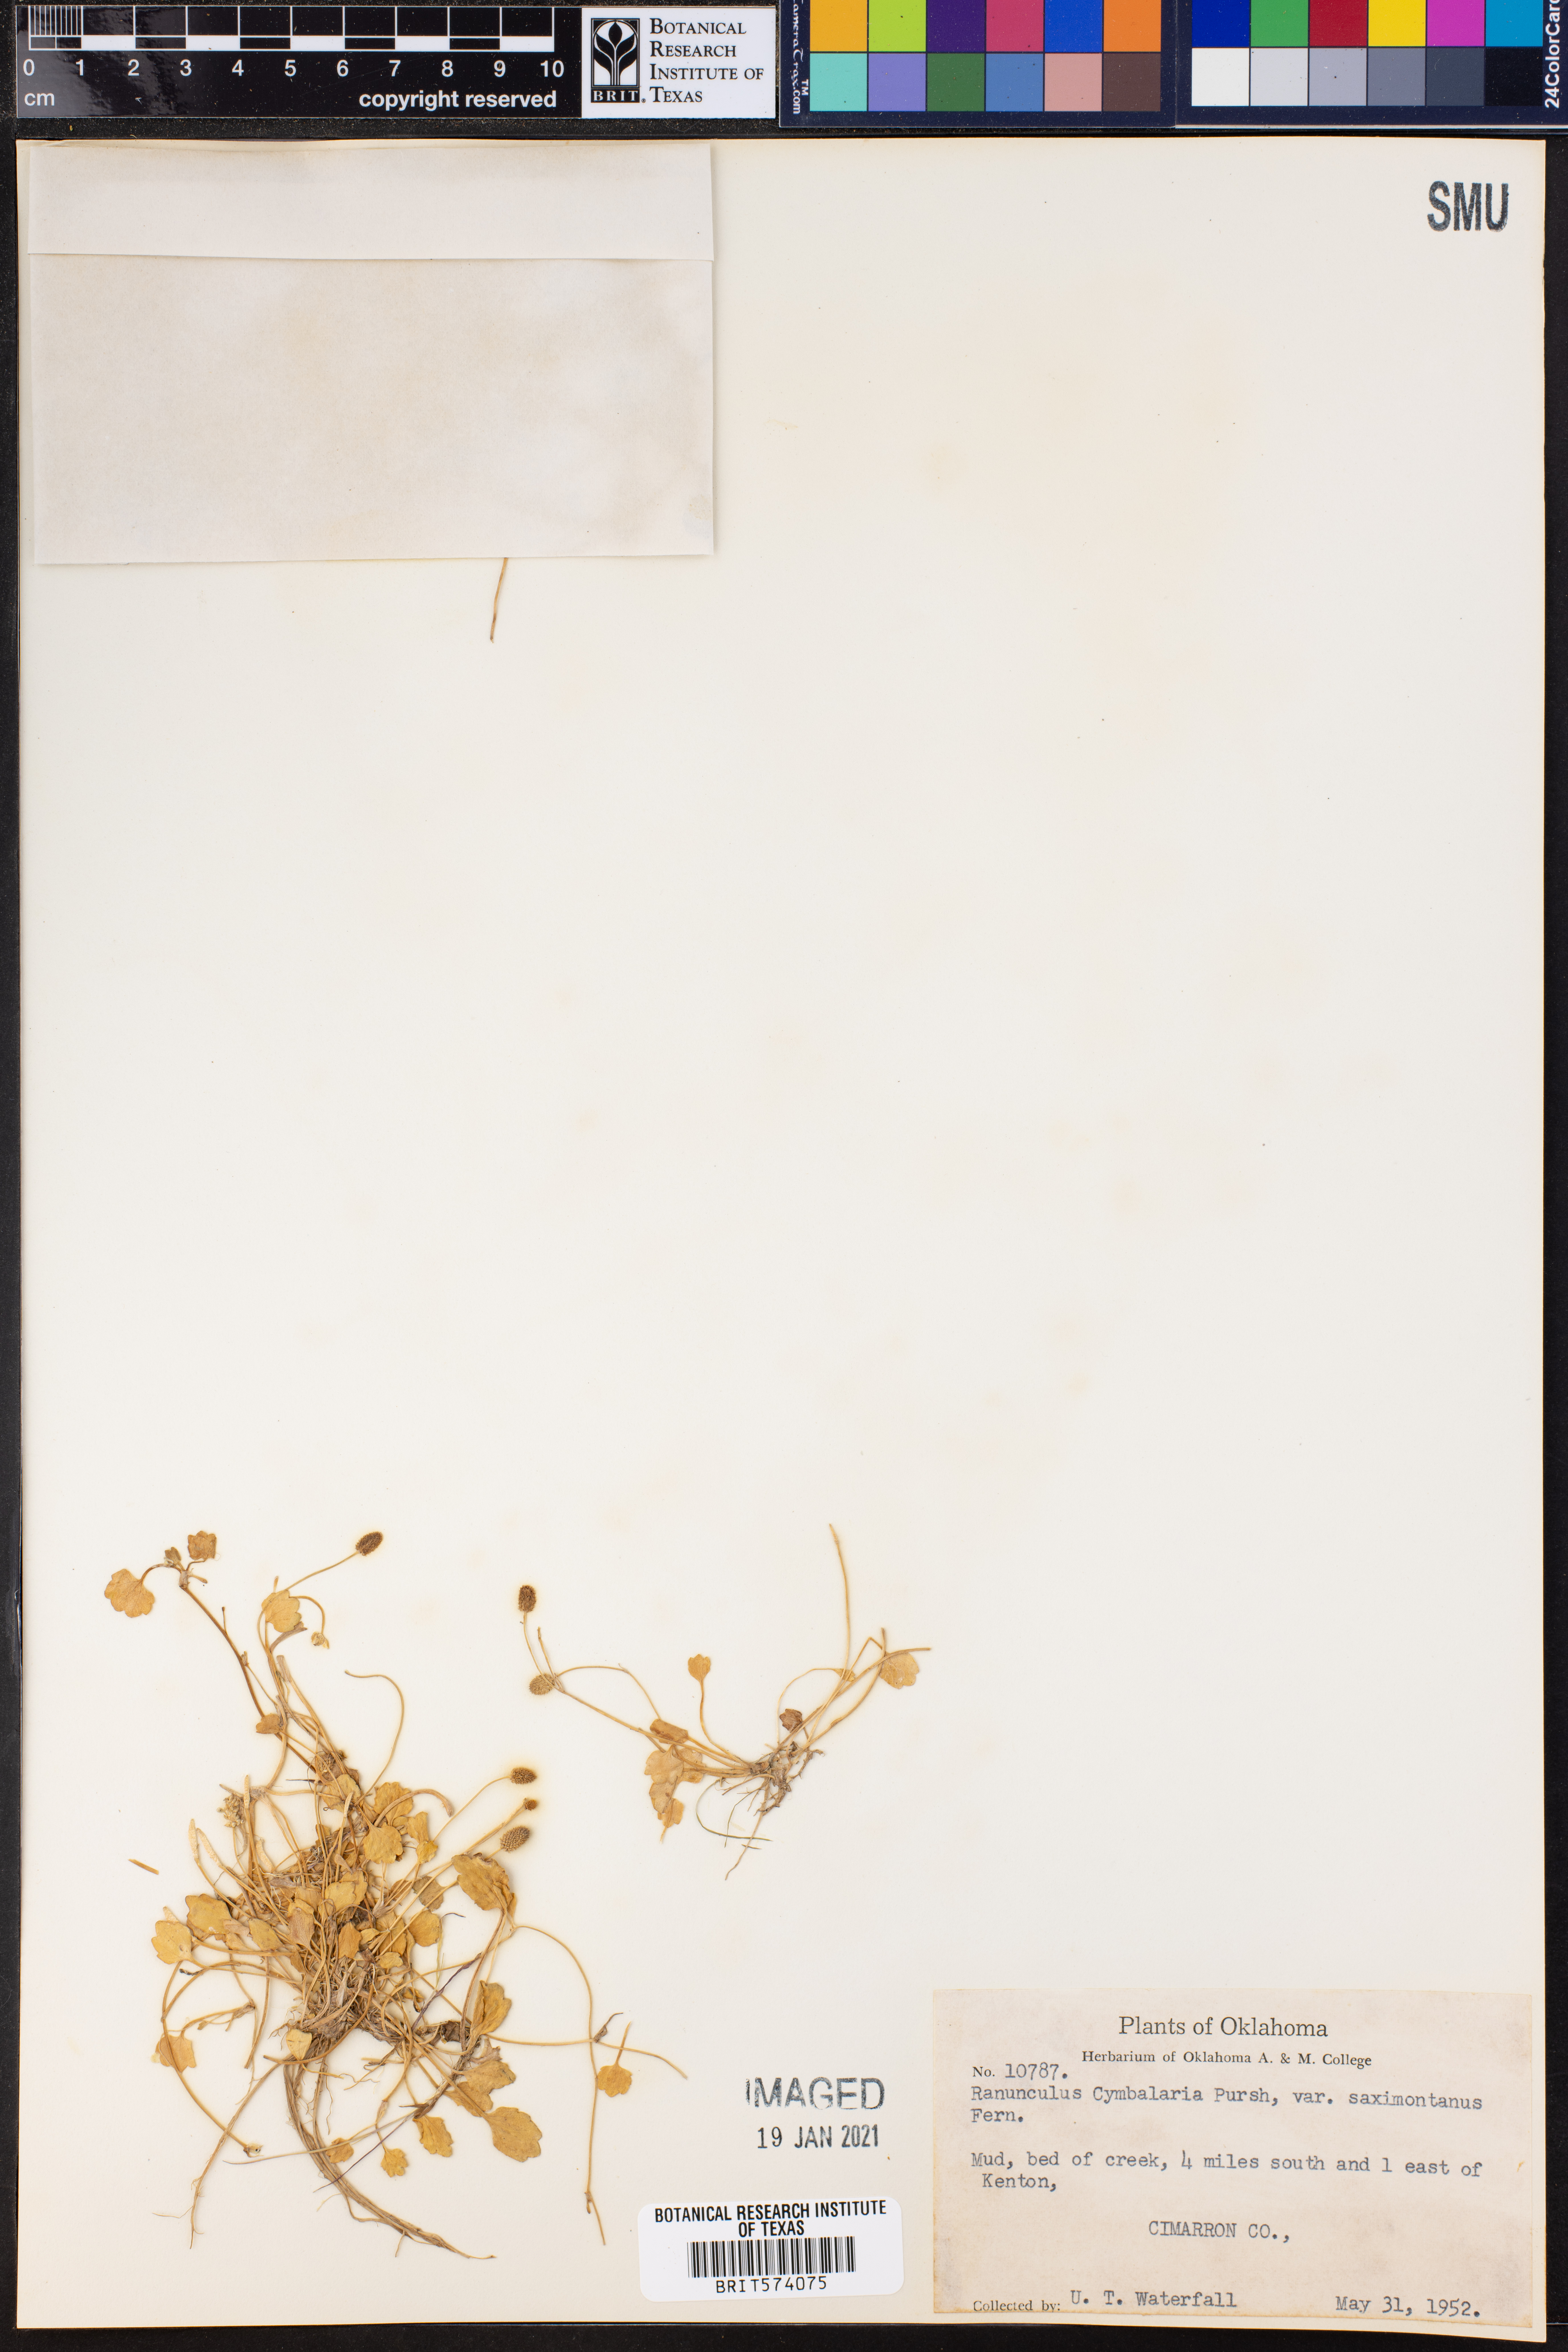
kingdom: Plantae
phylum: Tracheophyta
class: Magnoliopsida
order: Ranunculales
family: Ranunculaceae
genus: Halerpestes
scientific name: Halerpestes cymbalaria
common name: Seaside crowfoot
